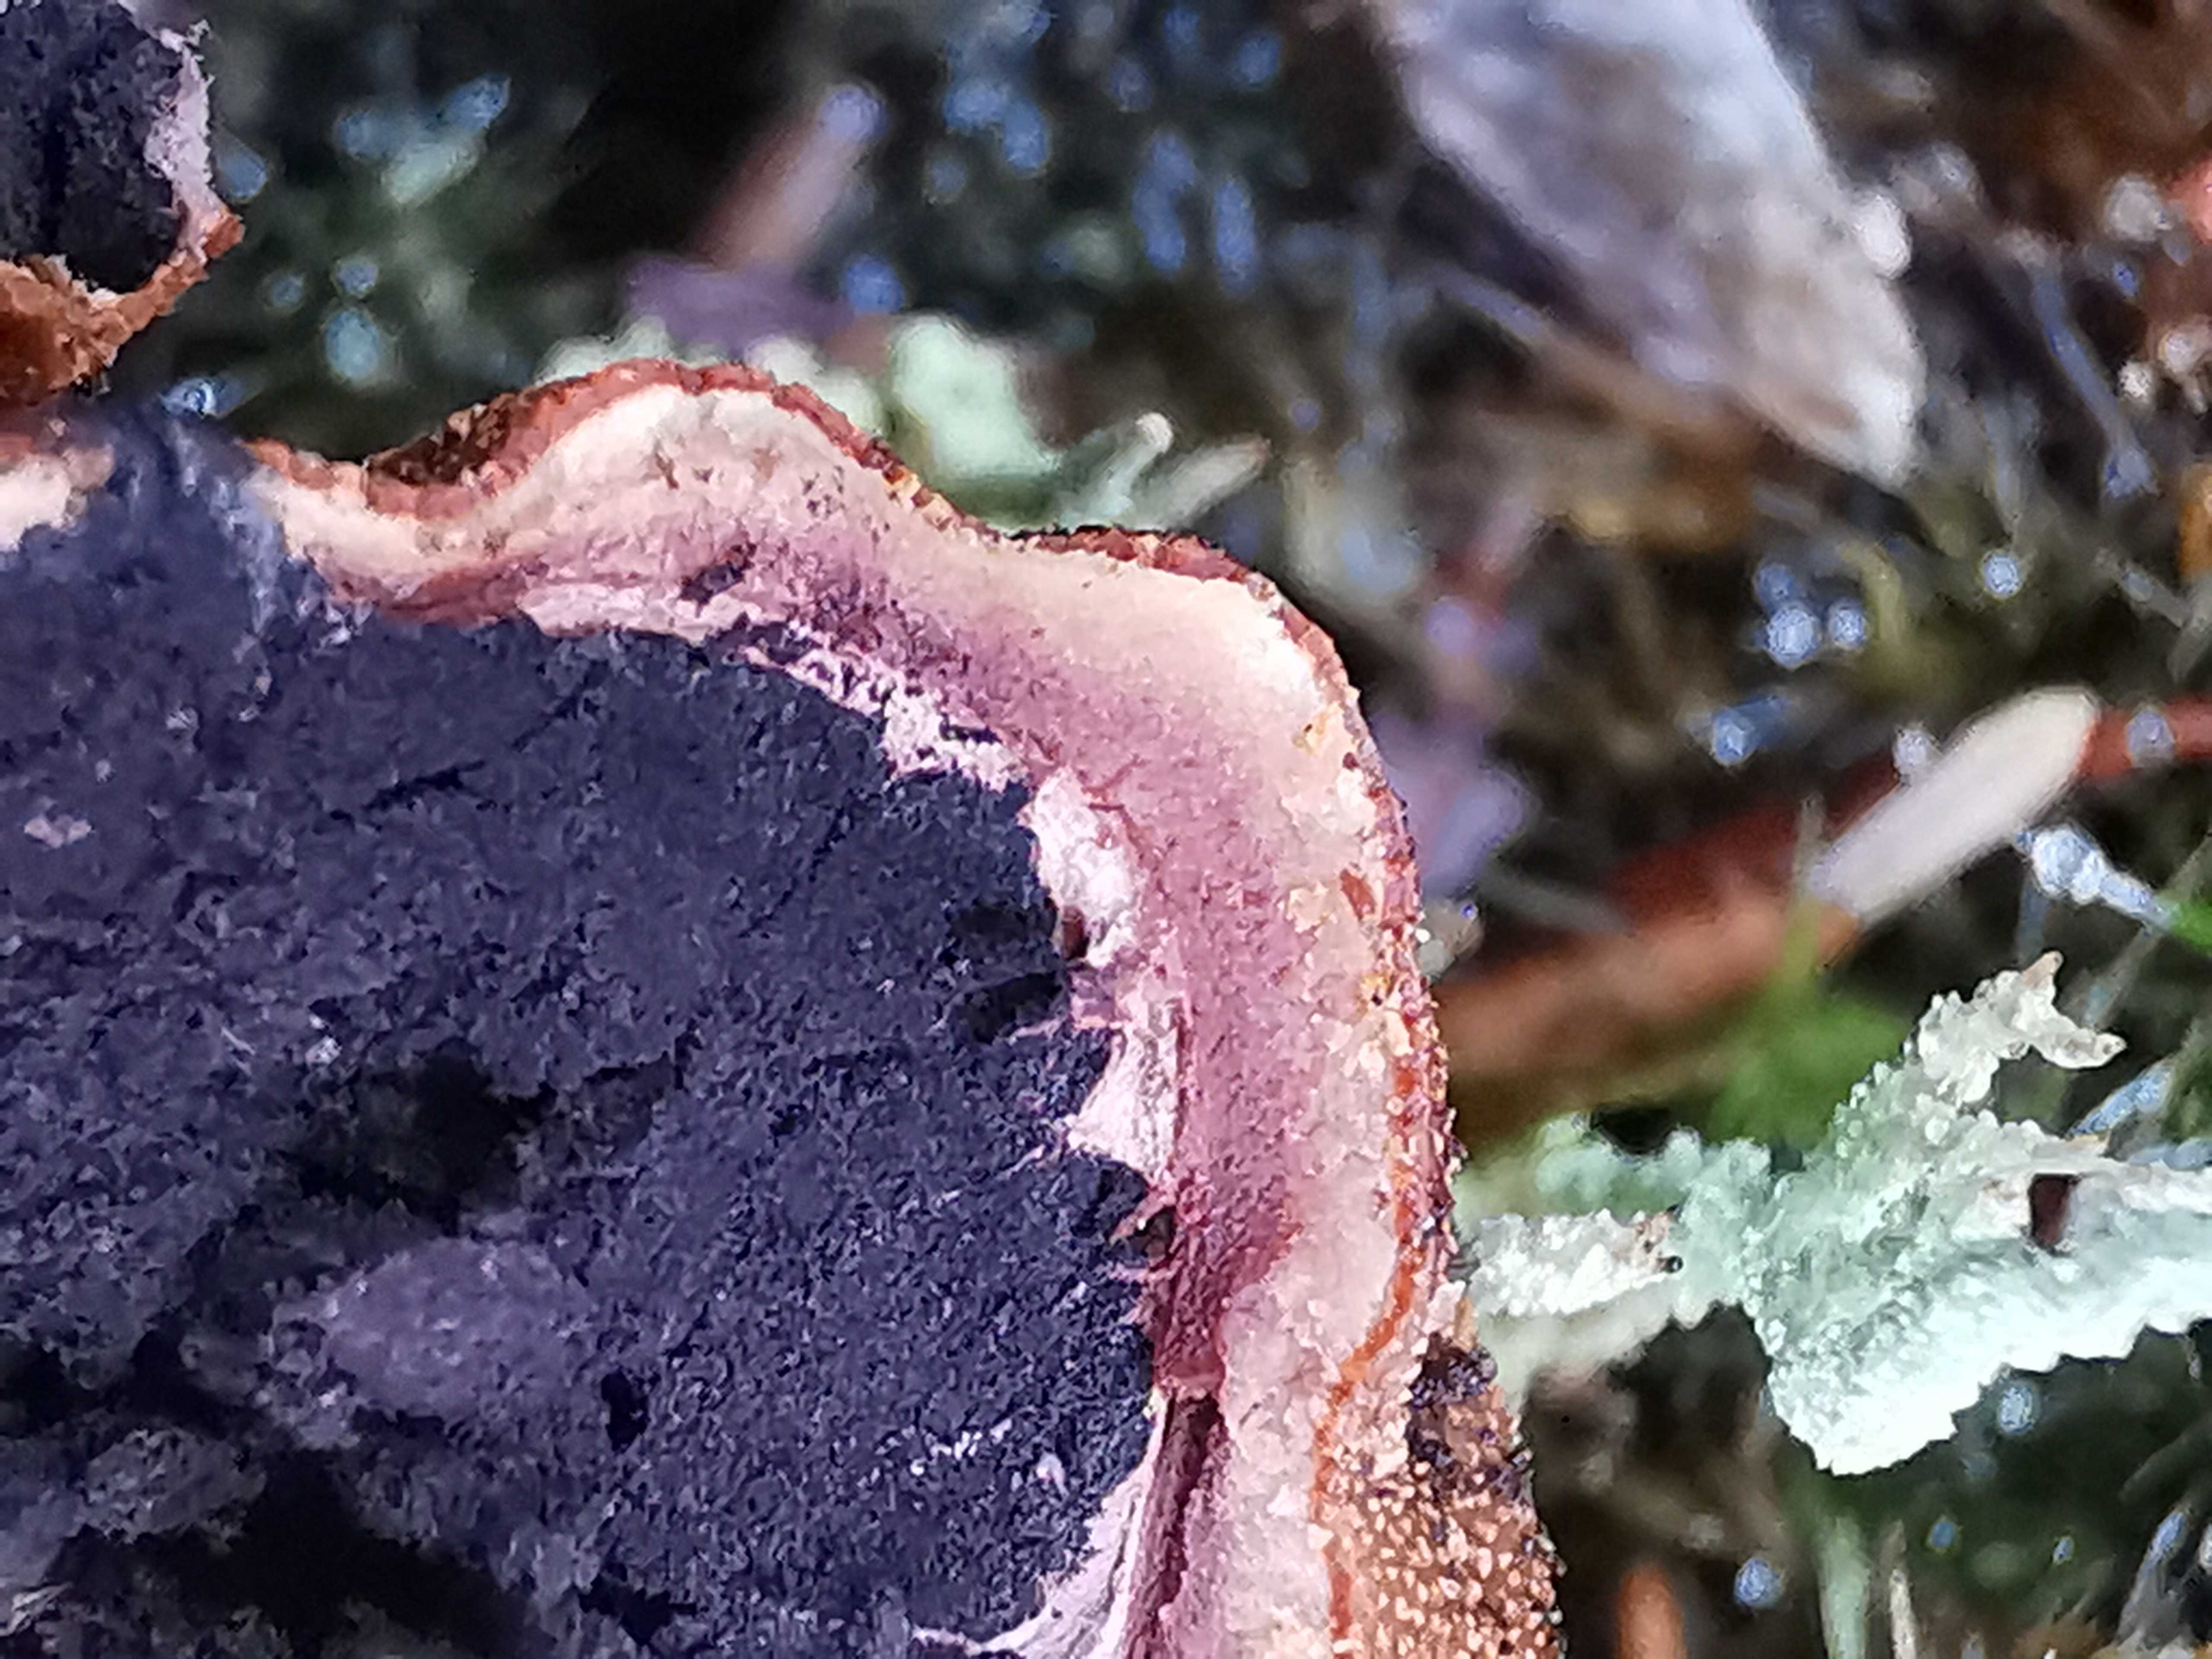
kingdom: Fungi
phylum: Ascomycota
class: Eurotiomycetes
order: Eurotiales
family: Elaphomycetaceae
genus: Elaphomyces
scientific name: Elaphomyces granulatus
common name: grynet hjortetrøffel
